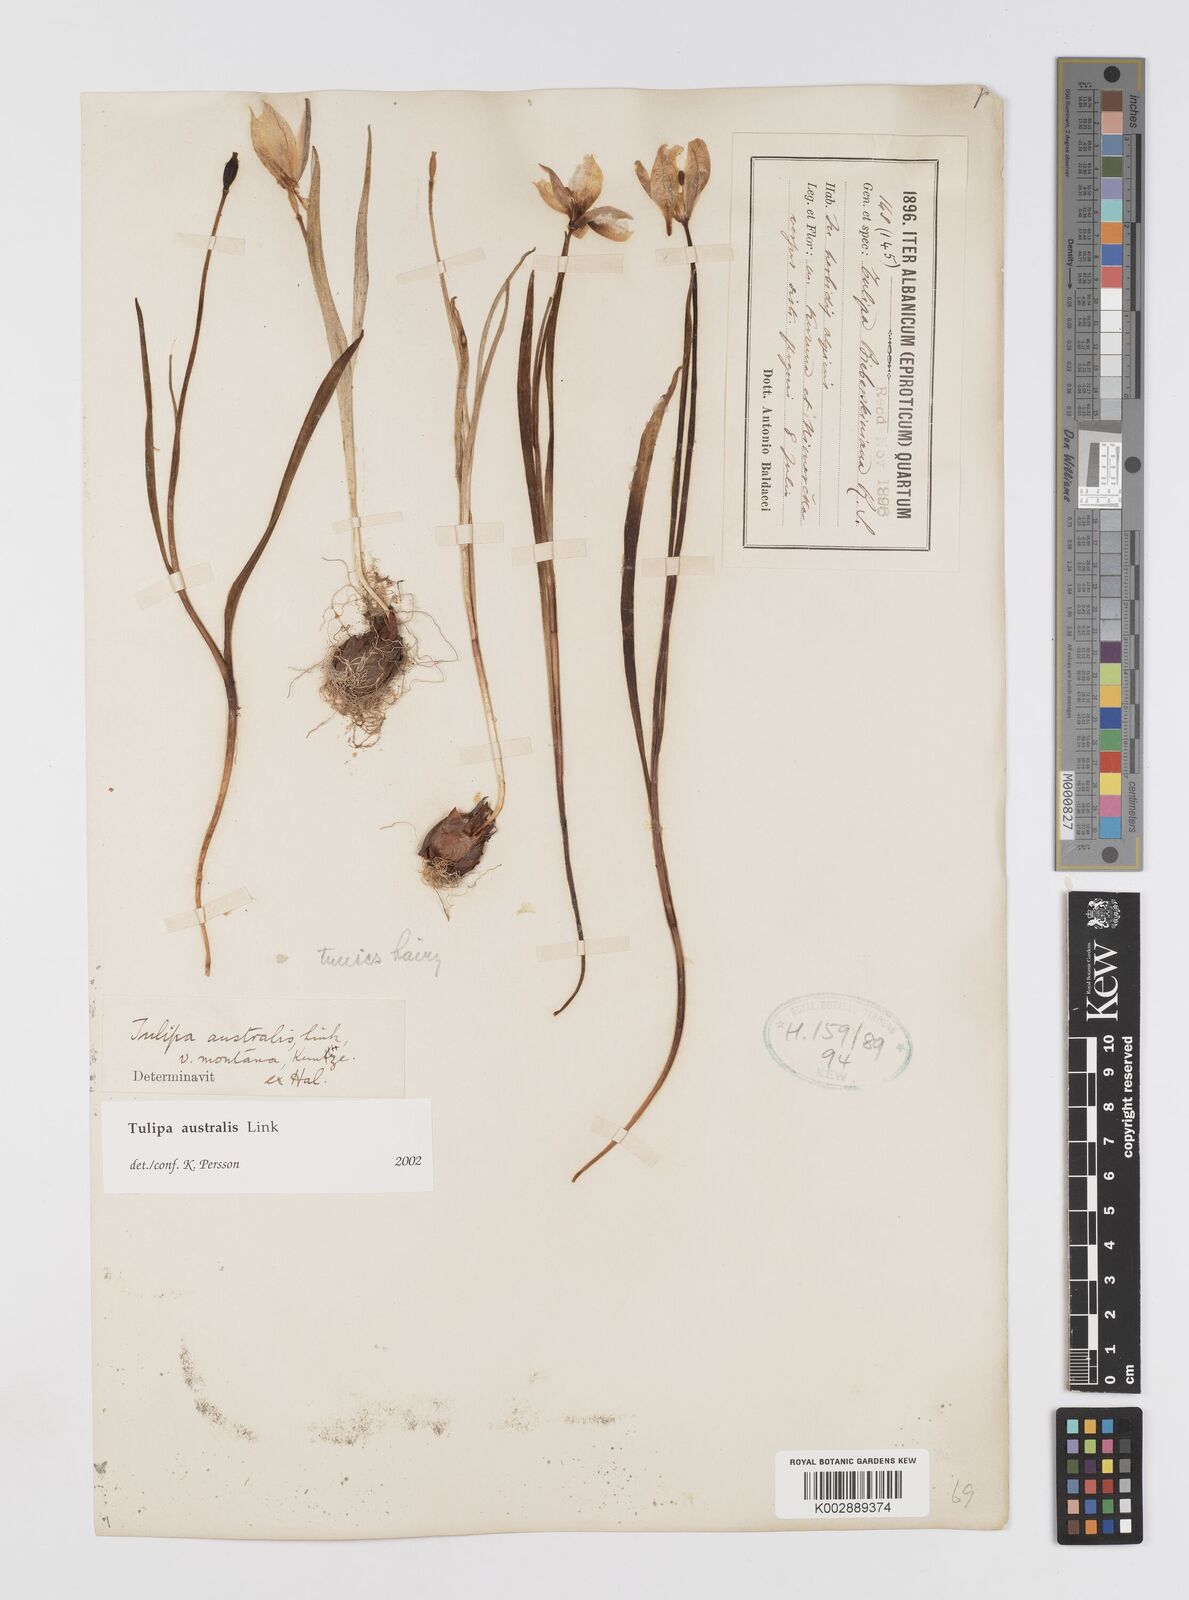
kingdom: Plantae
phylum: Tracheophyta
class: Liliopsida
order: Liliales
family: Liliaceae
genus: Tulipa
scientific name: Tulipa sylvestris
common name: Wild tulip
